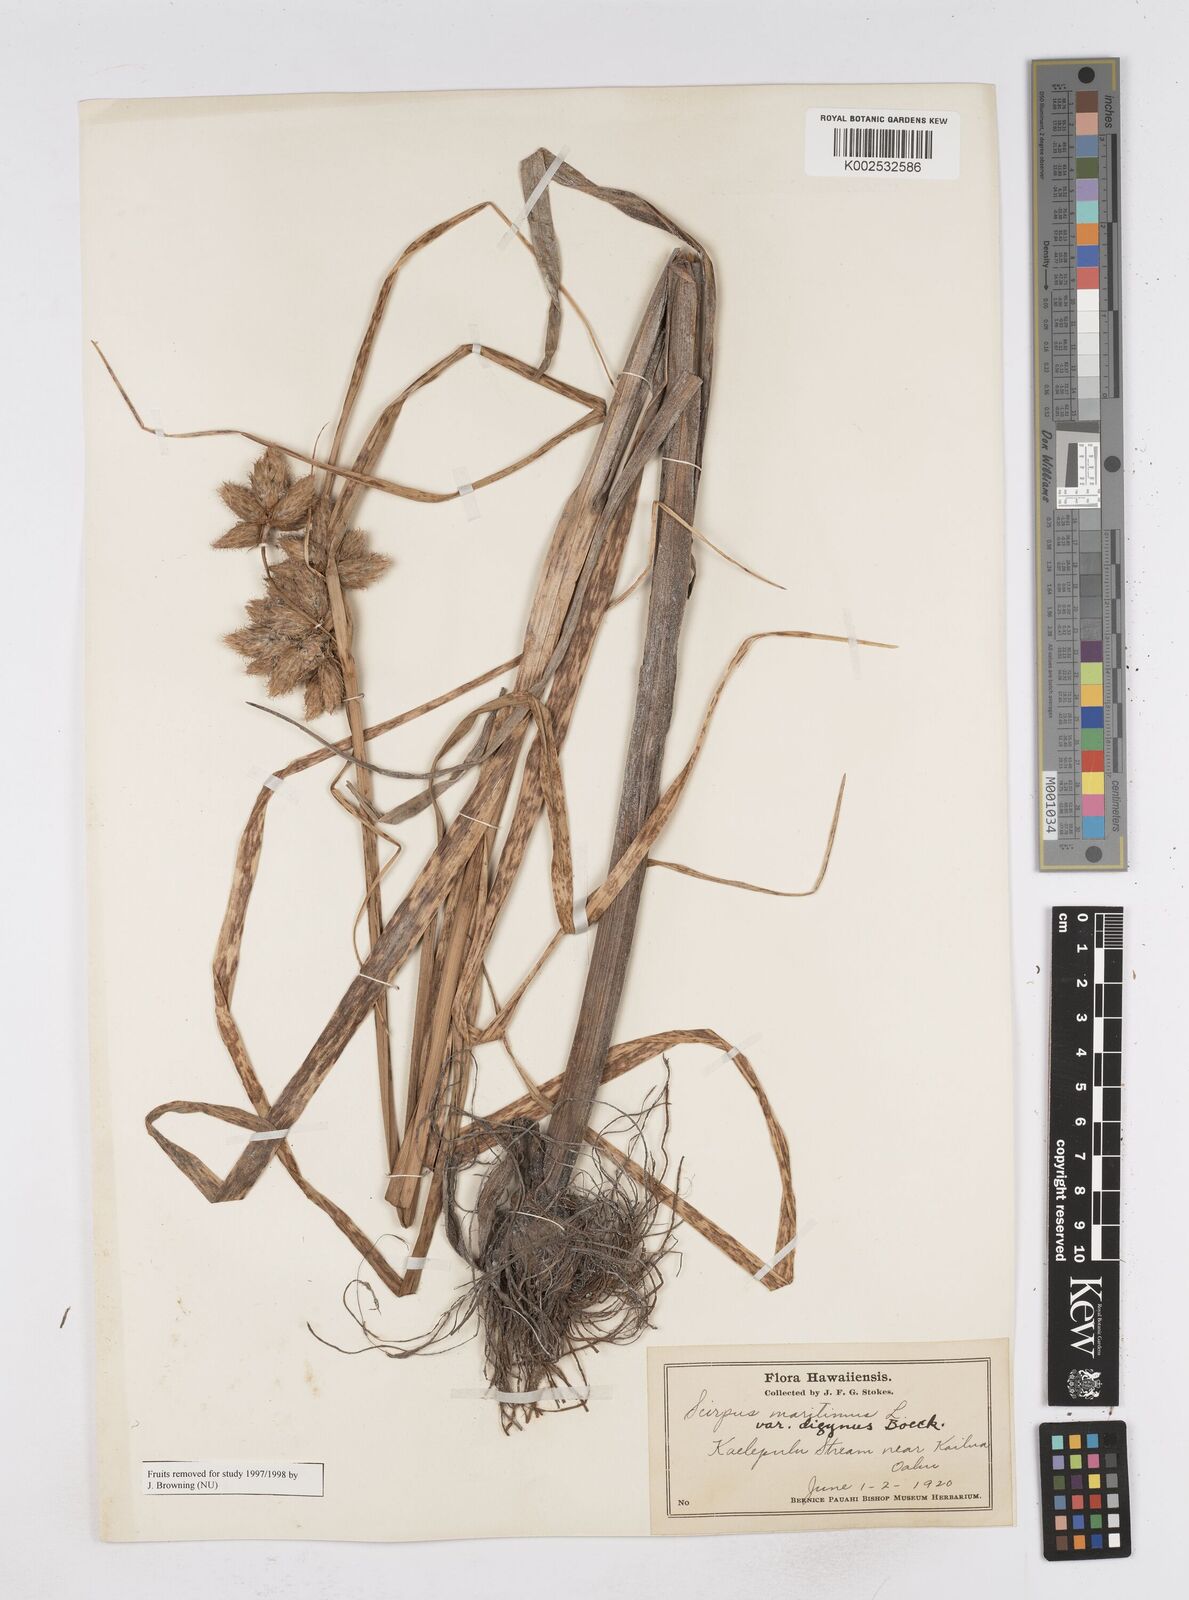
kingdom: Plantae
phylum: Tracheophyta
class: Liliopsida
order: Poales
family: Cyperaceae
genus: Bolboschoenus
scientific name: Bolboschoenus maritimus
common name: Sea club-rush
